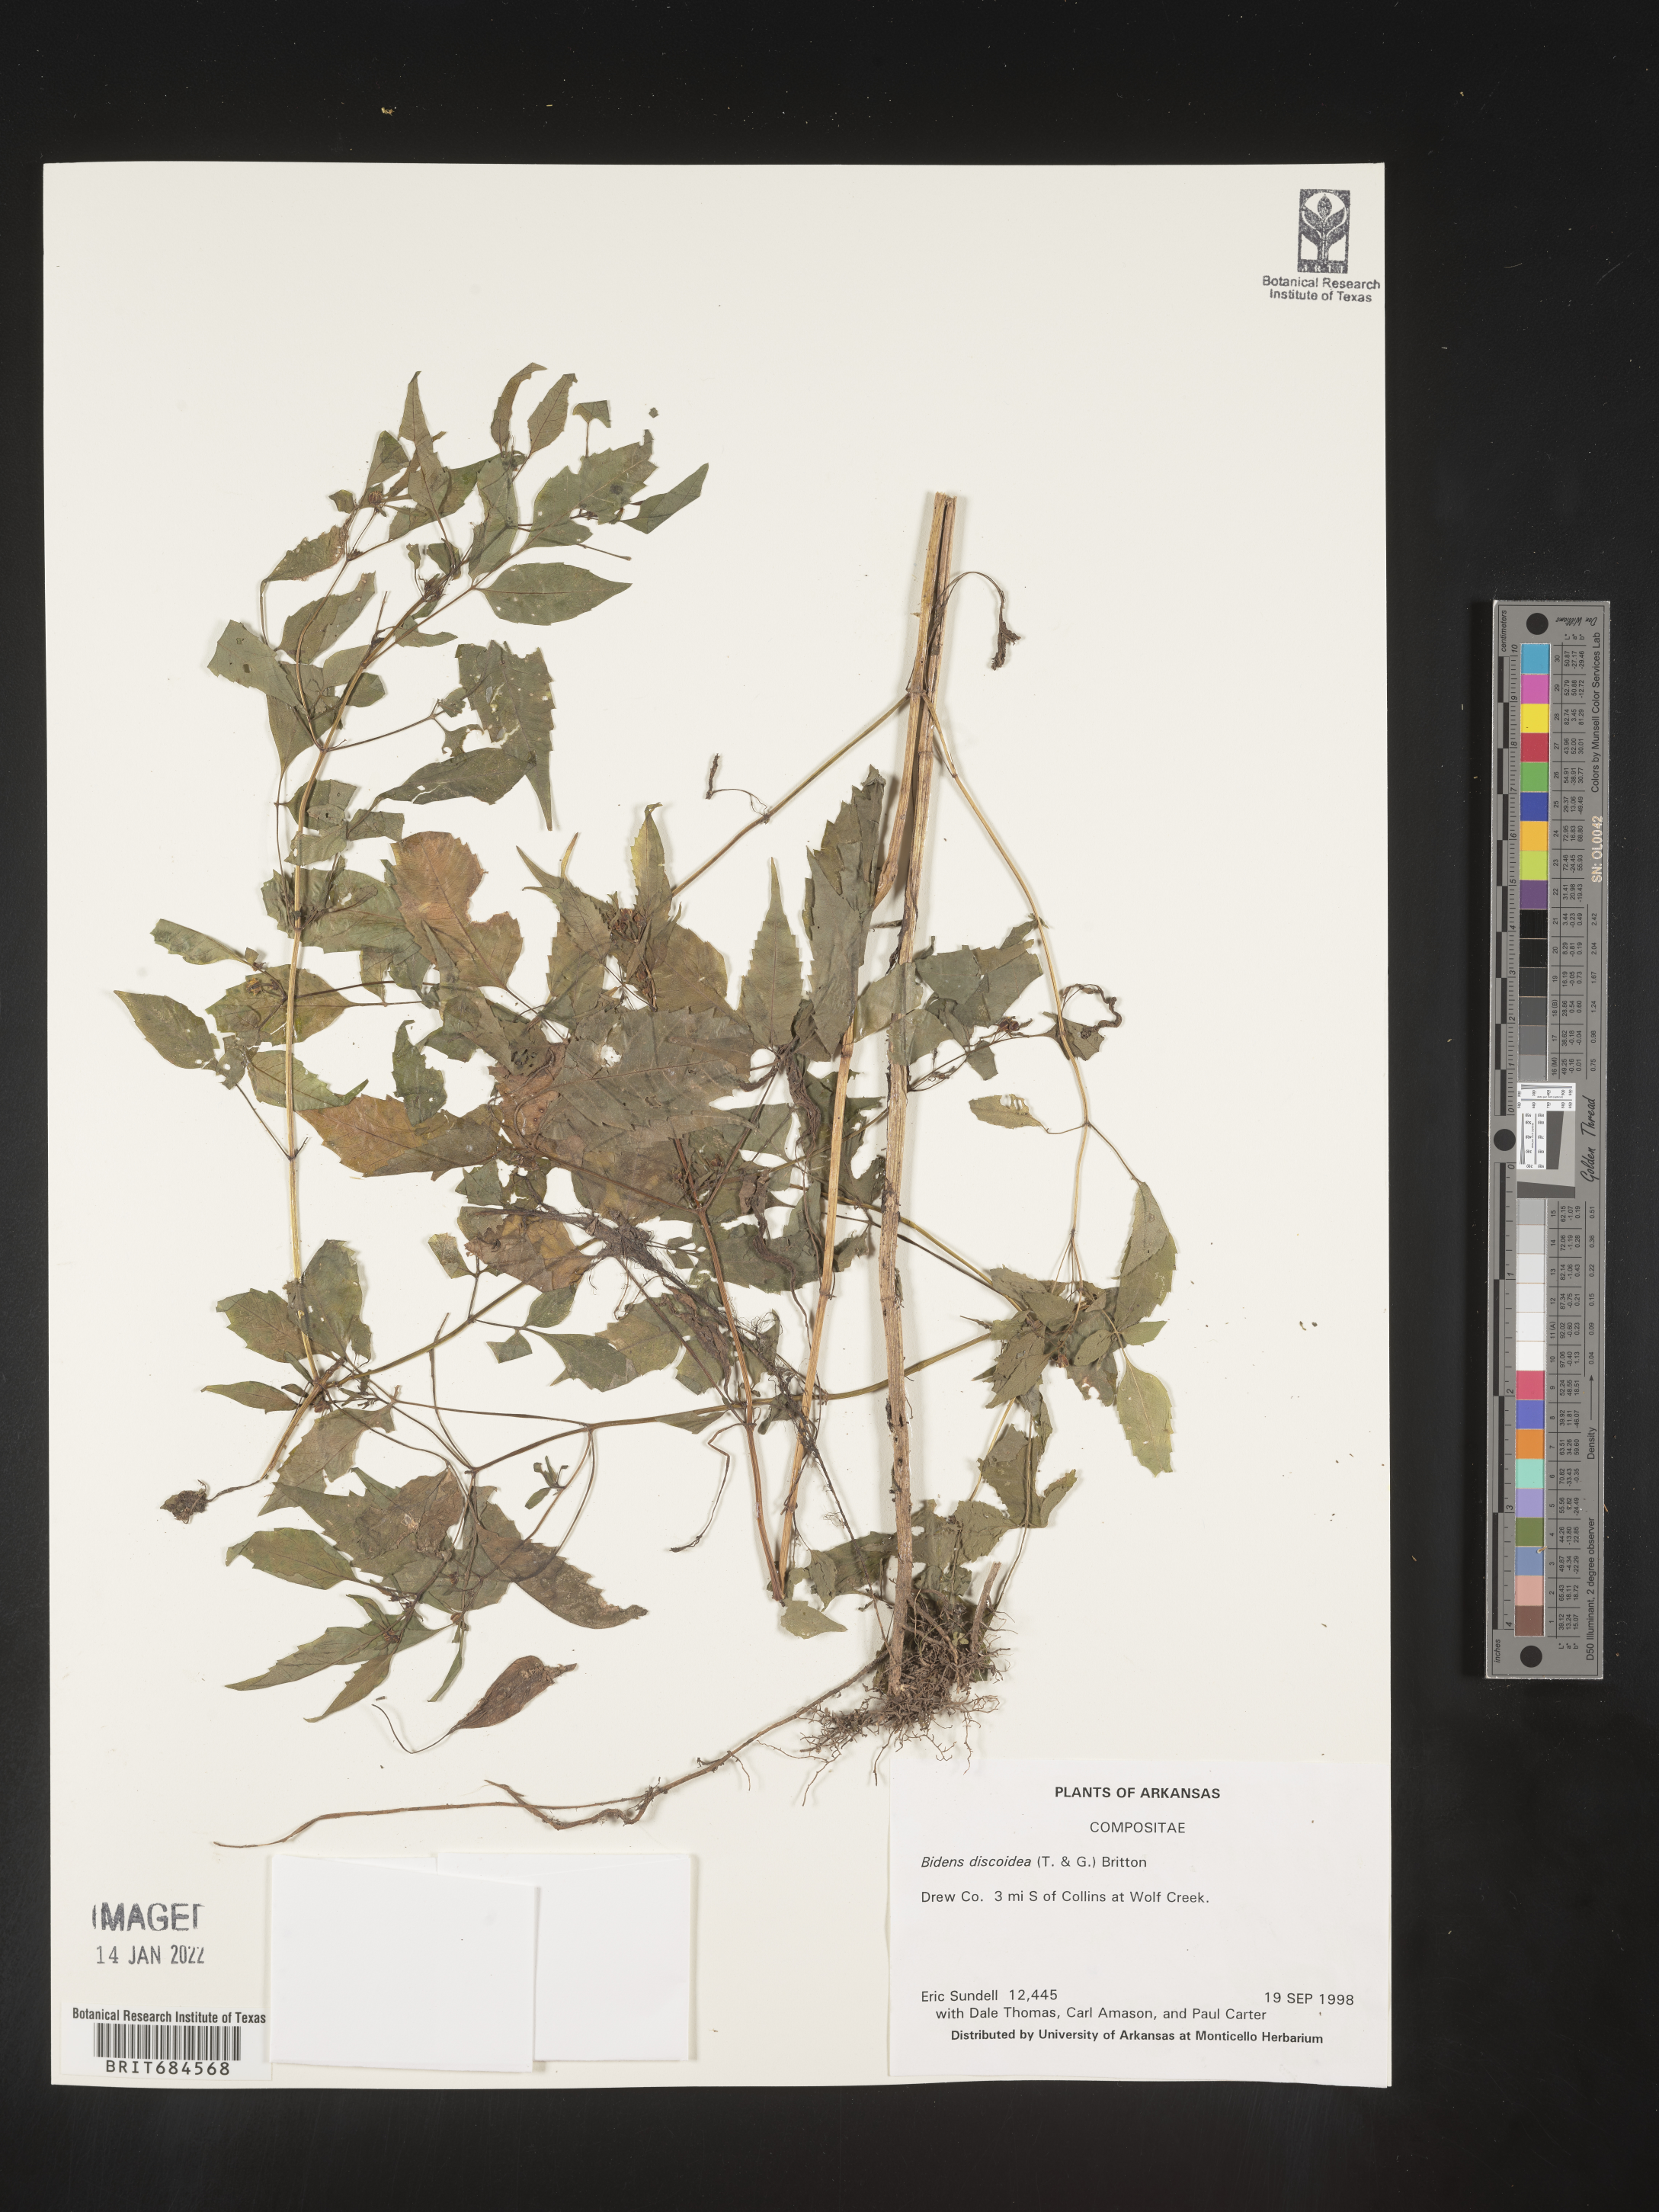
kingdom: Plantae
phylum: Tracheophyta
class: Magnoliopsida
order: Asterales
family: Asteraceae
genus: Bidens
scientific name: Bidens discoidea
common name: Discoide beggarticks
